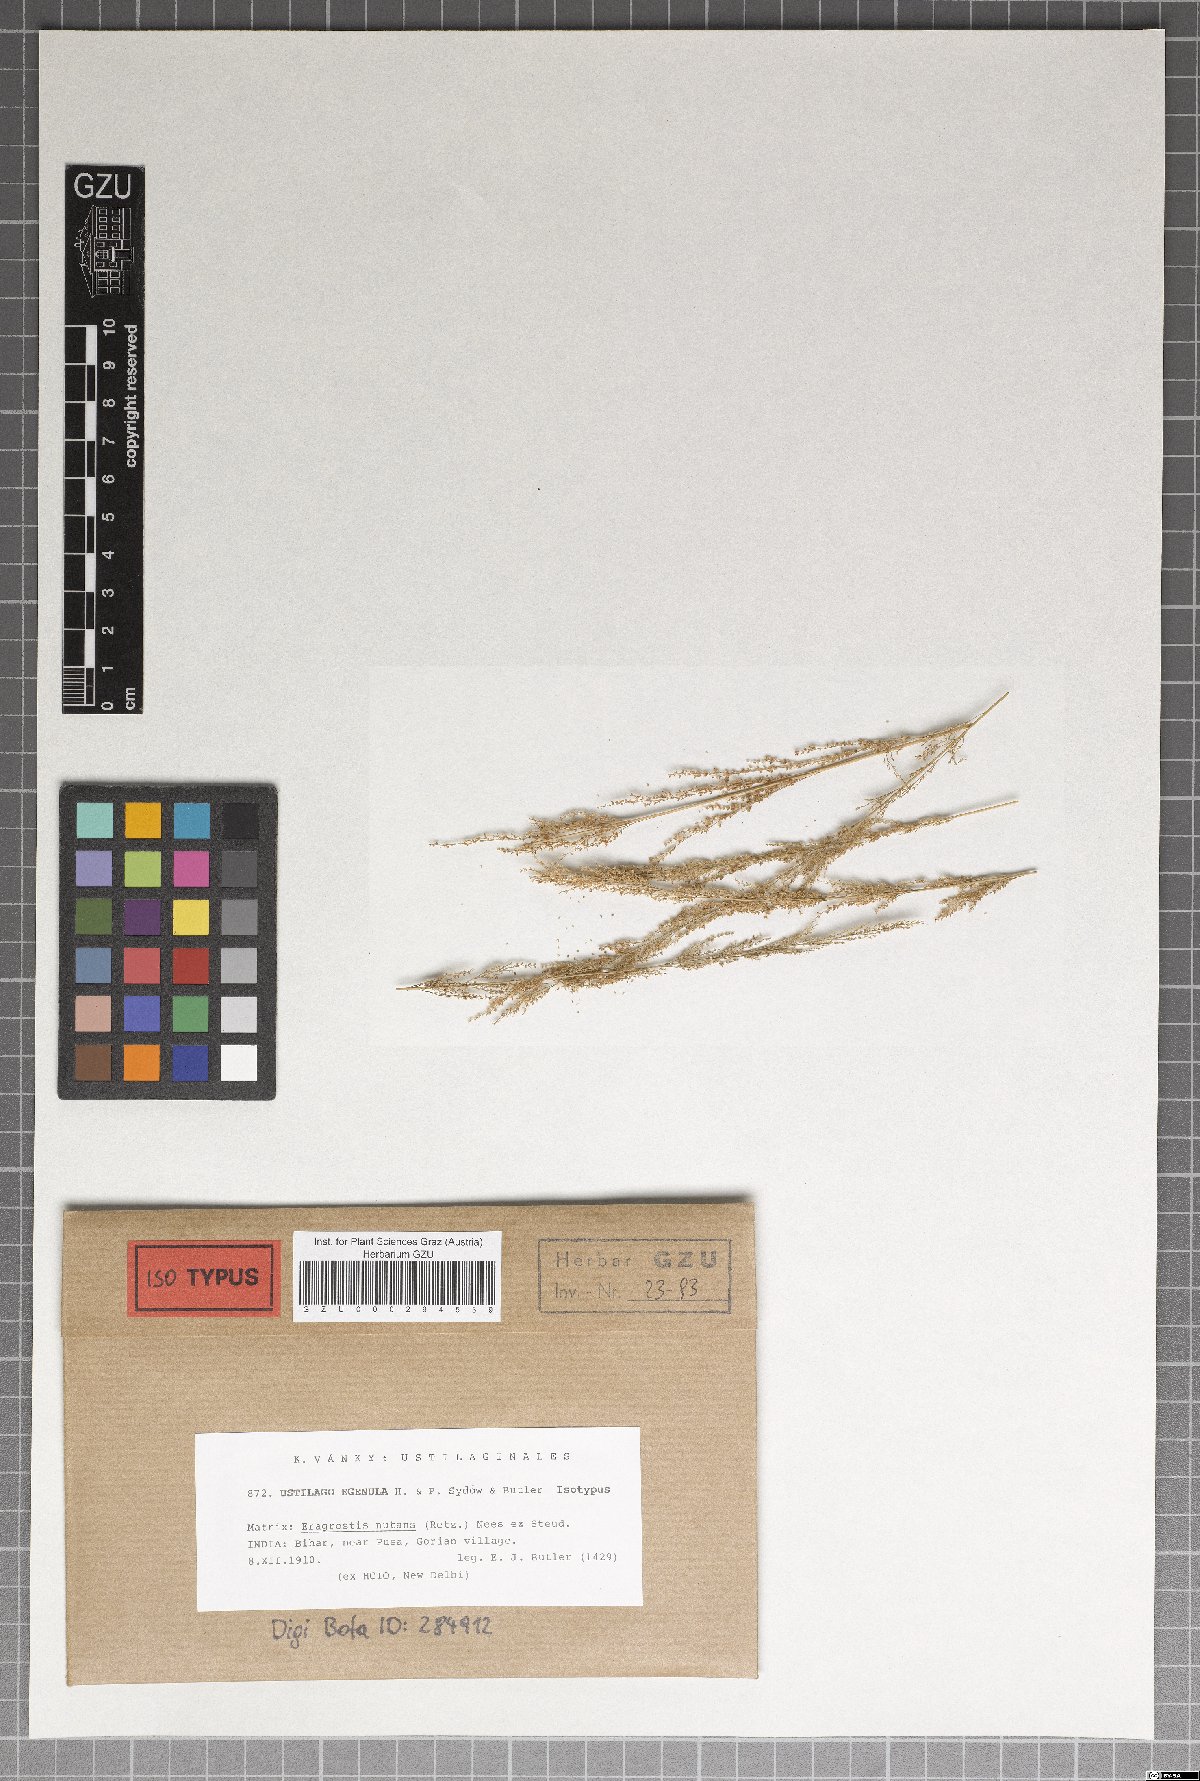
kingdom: Fungi
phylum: Basidiomycota
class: Ustilaginomycetes
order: Ustilaginales
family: Ustilaginaceae
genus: Ustilago
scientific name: Ustilago egenula
